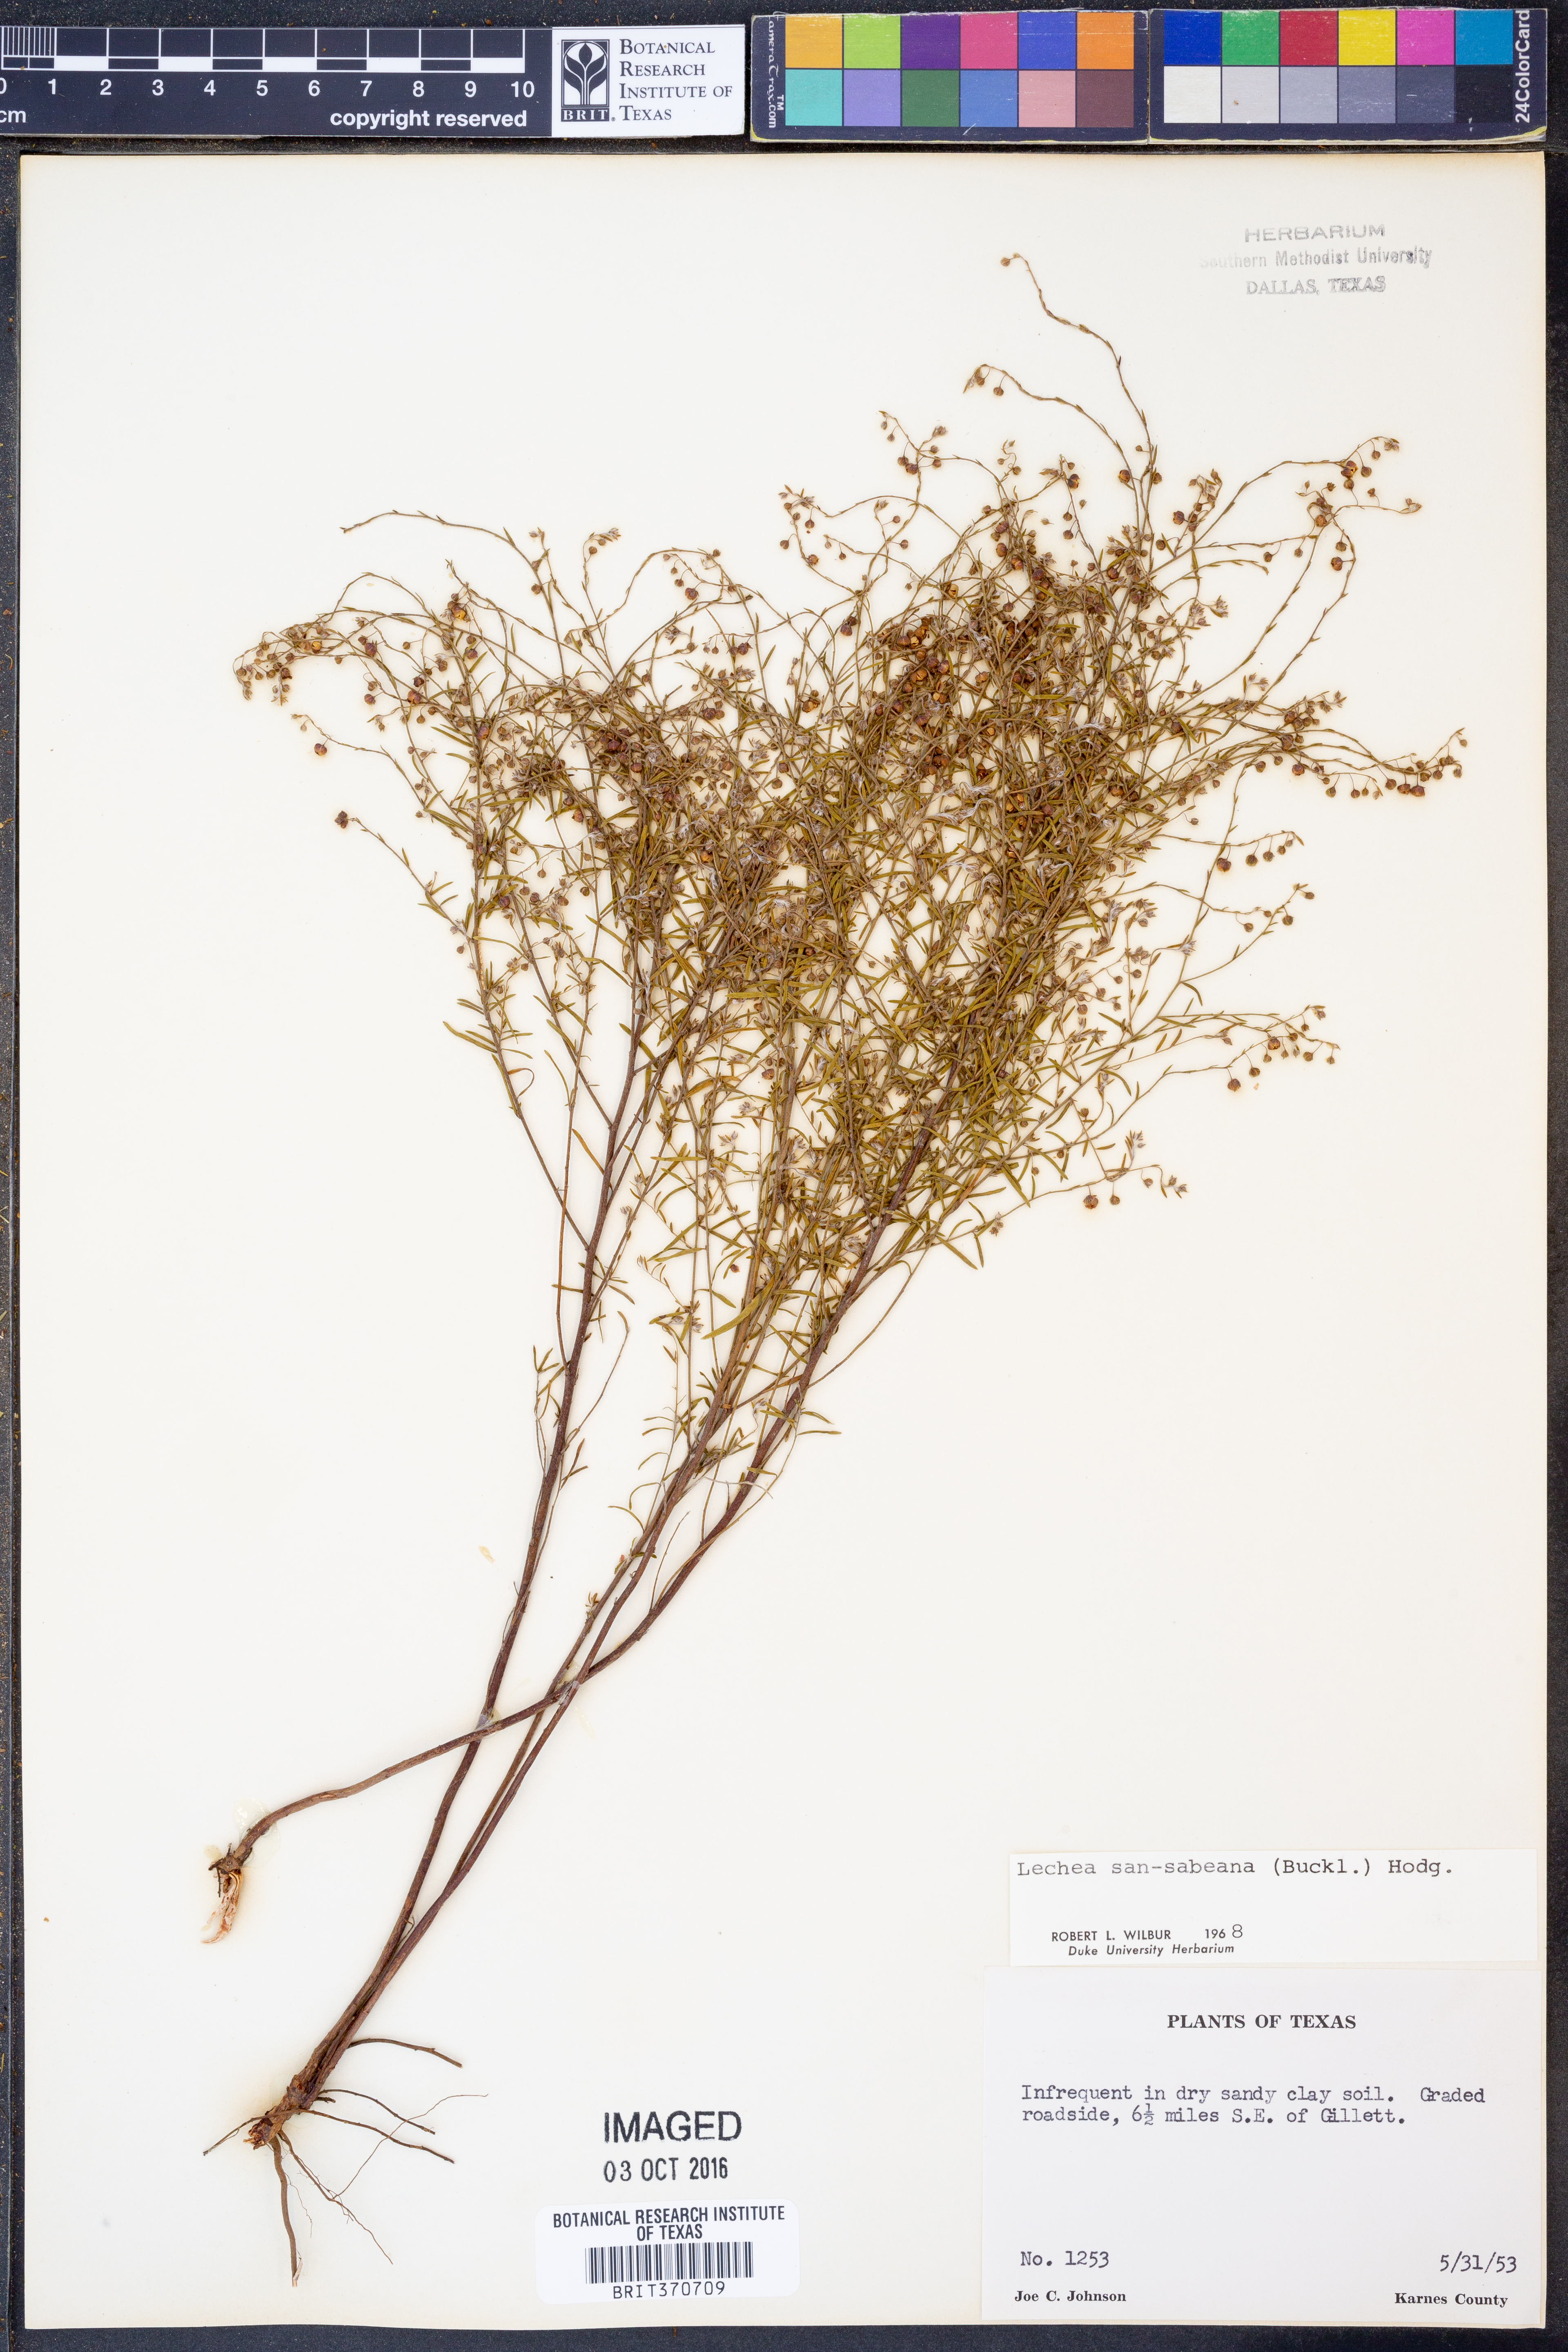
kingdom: Plantae
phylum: Tracheophyta
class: Magnoliopsida
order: Malvales
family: Cistaceae
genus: Lechea
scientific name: Lechea san-sabeana
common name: San saba pinweed
